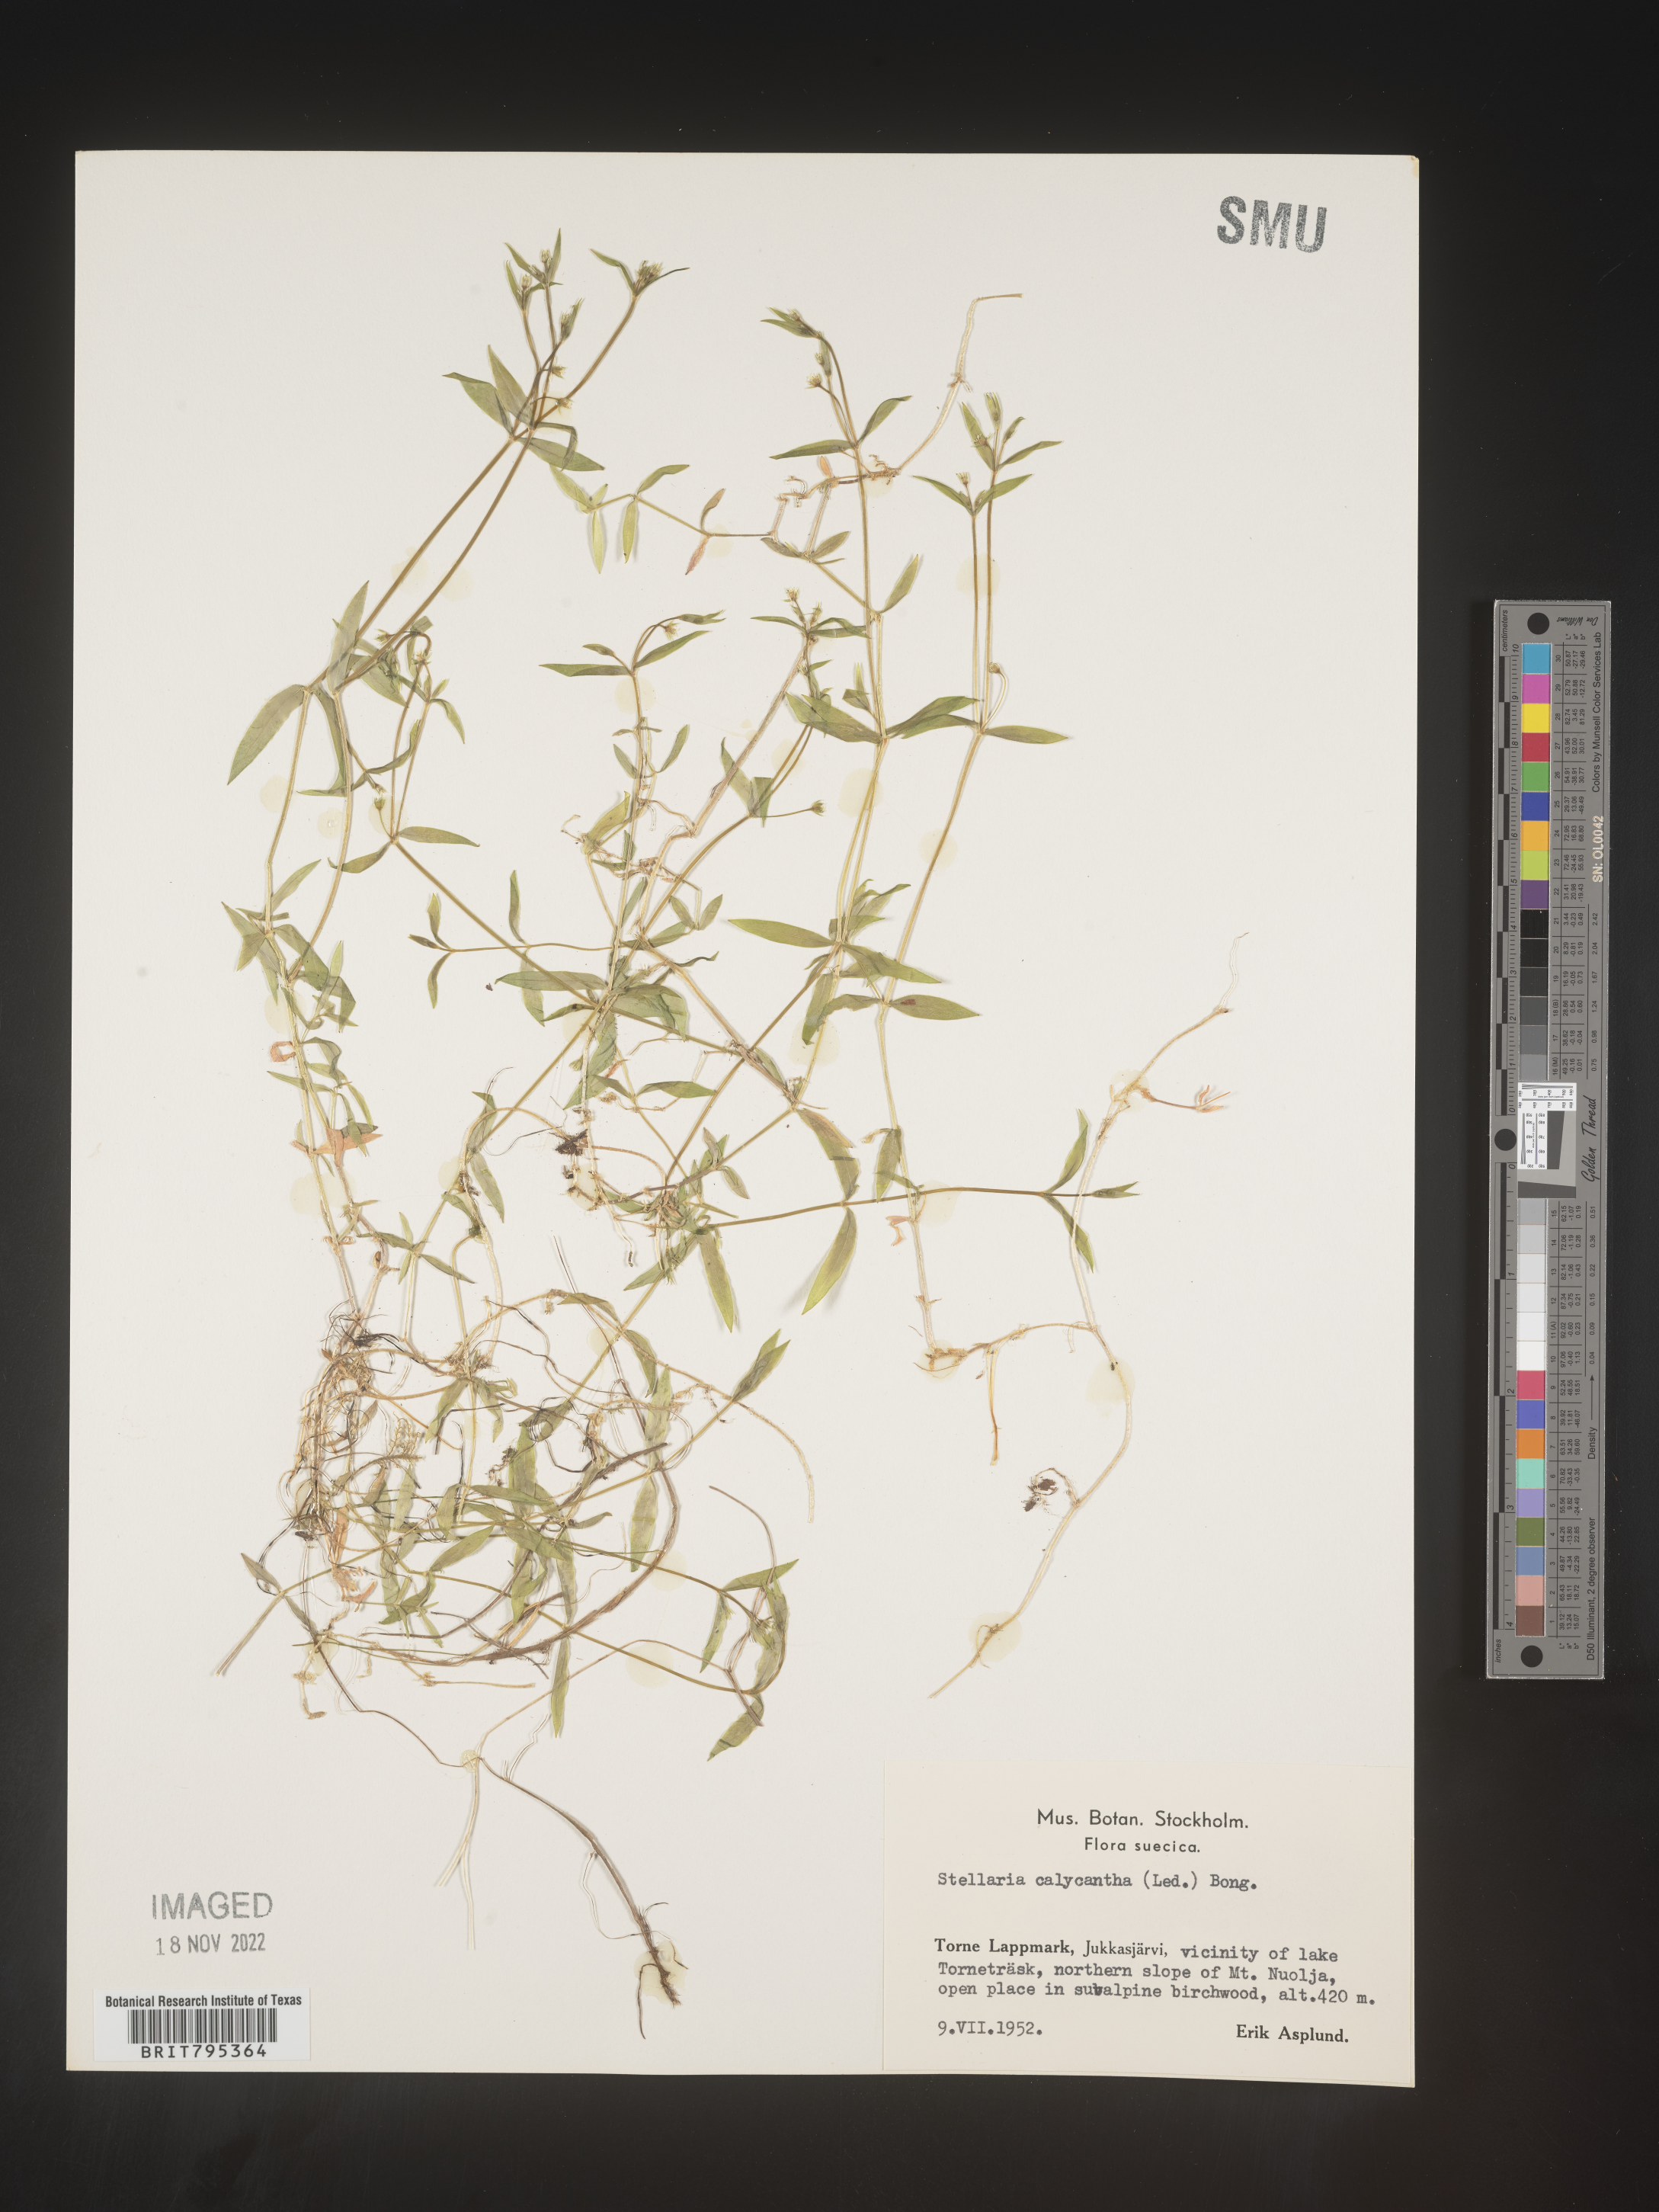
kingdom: Plantae
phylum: Tracheophyta
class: Magnoliopsida
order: Caryophyllales
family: Caryophyllaceae
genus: Stellaria
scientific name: Stellaria
